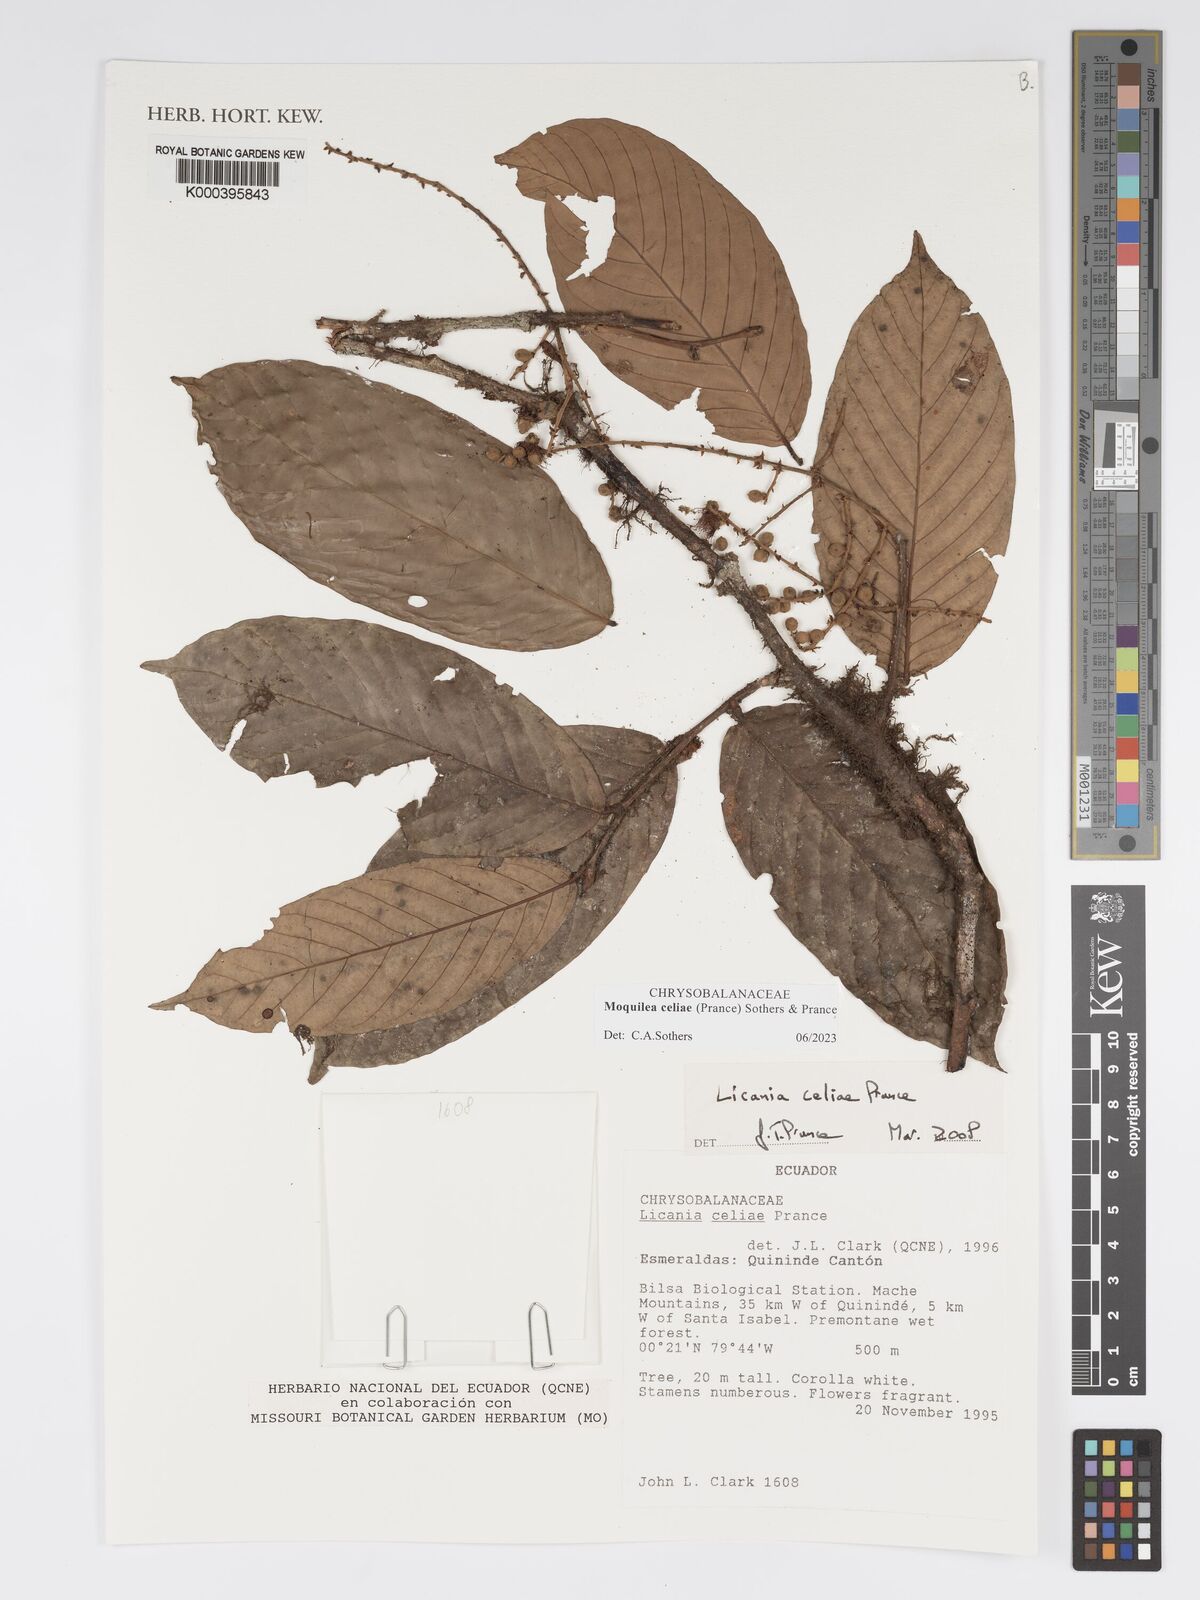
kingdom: Plantae
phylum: Tracheophyta
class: Magnoliopsida
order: Malpighiales
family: Chrysobalanaceae
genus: Moquilea
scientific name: Moquilea celiae
